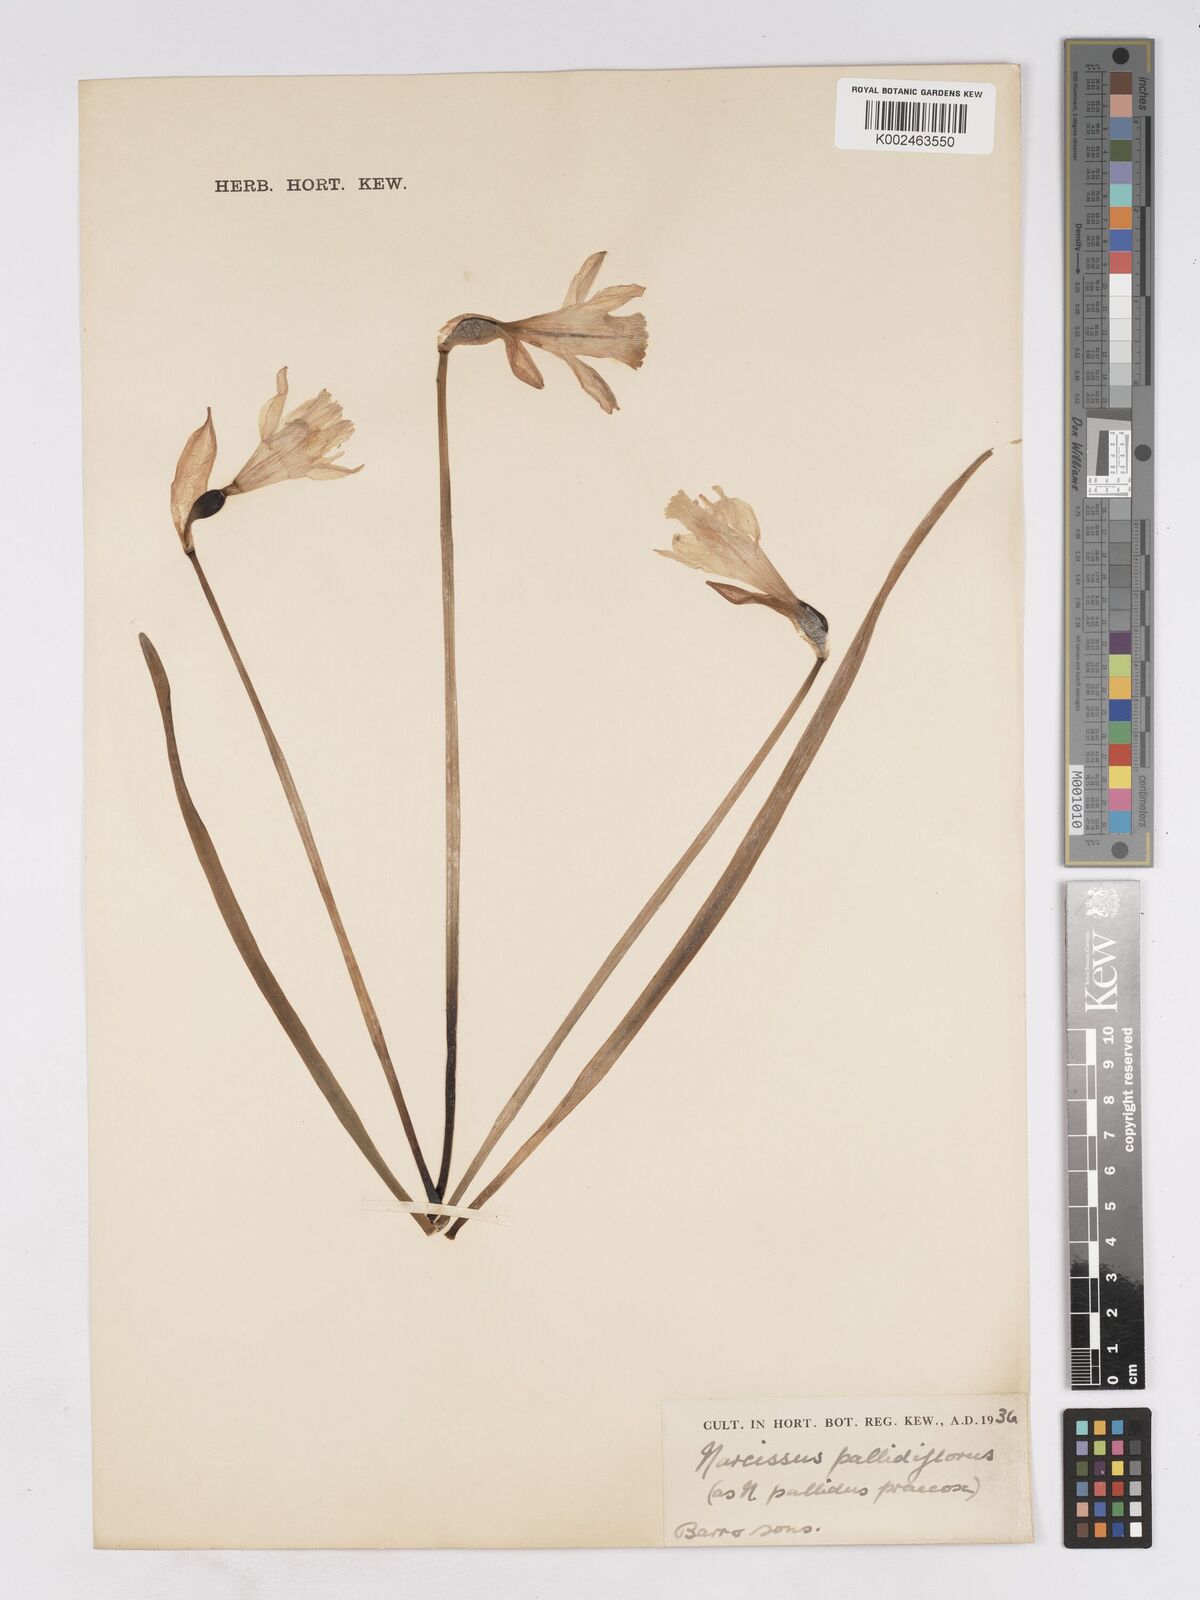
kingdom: Plantae
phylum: Tracheophyta
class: Liliopsida
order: Asparagales
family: Amaryllidaceae
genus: Narcissus
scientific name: Narcissus pallidiflorus
